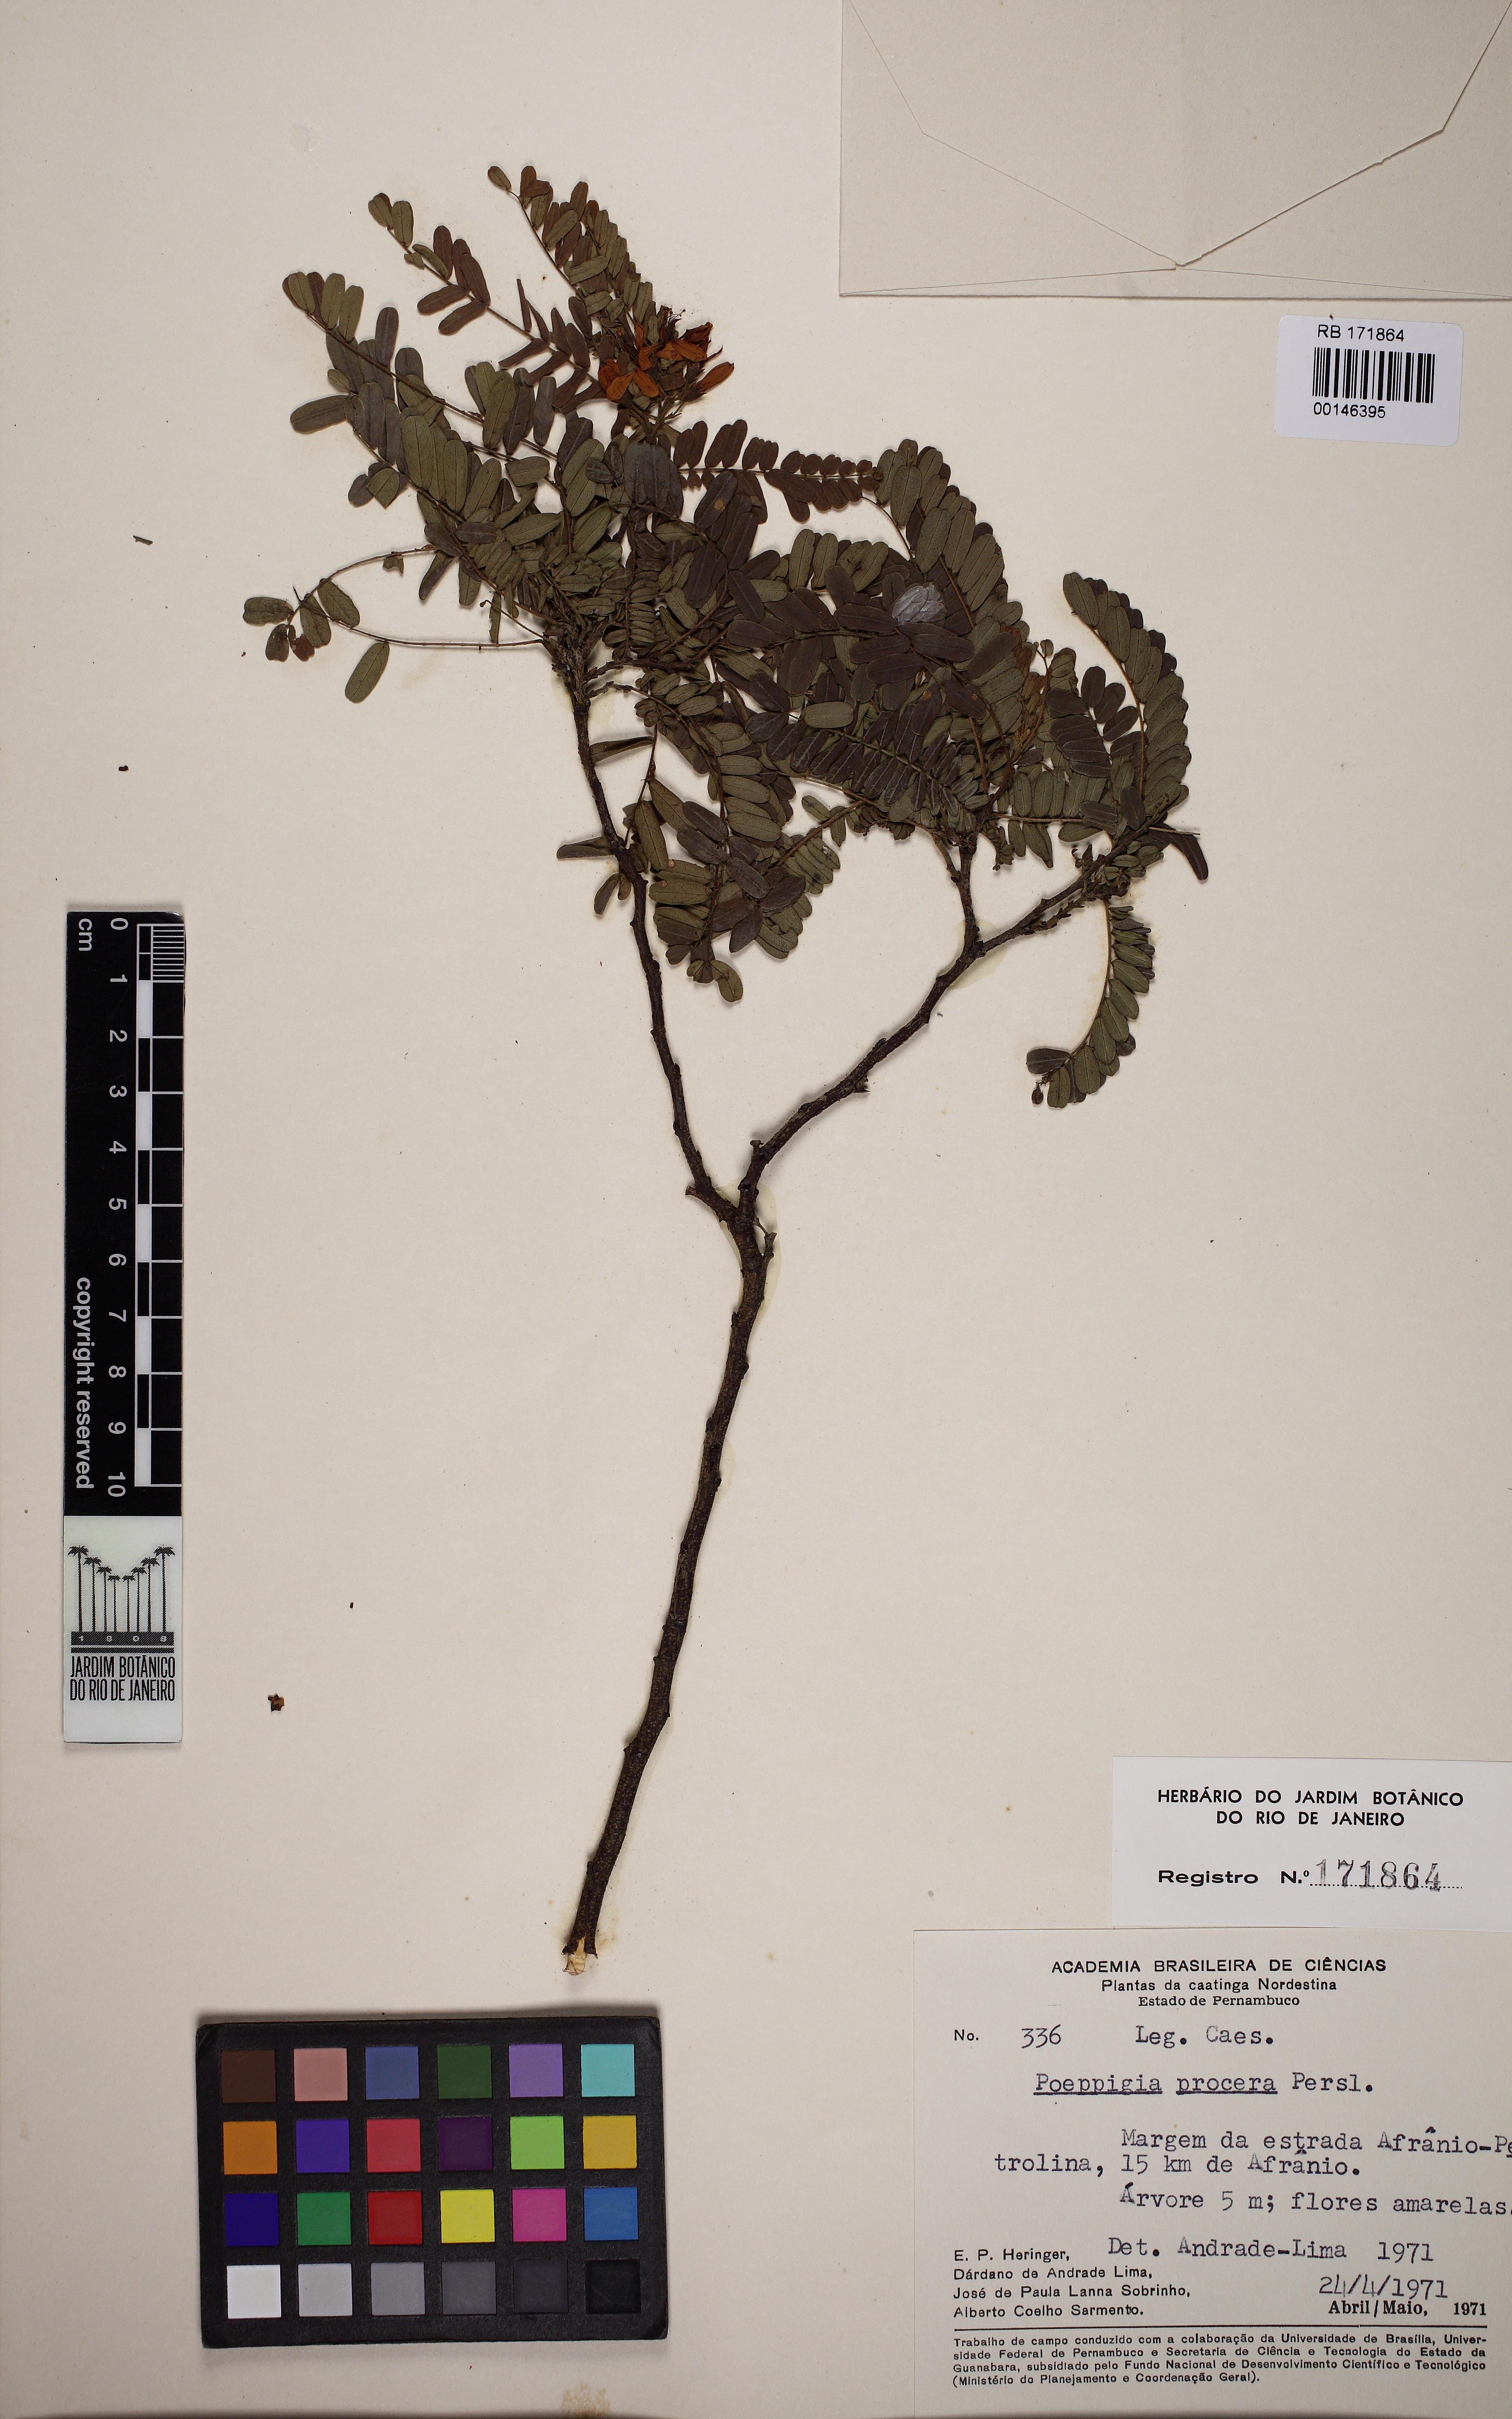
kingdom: Plantae
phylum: Tracheophyta
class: Magnoliopsida
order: Fabales
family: Fabaceae
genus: Poeppigia
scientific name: Poeppigia densiflora
